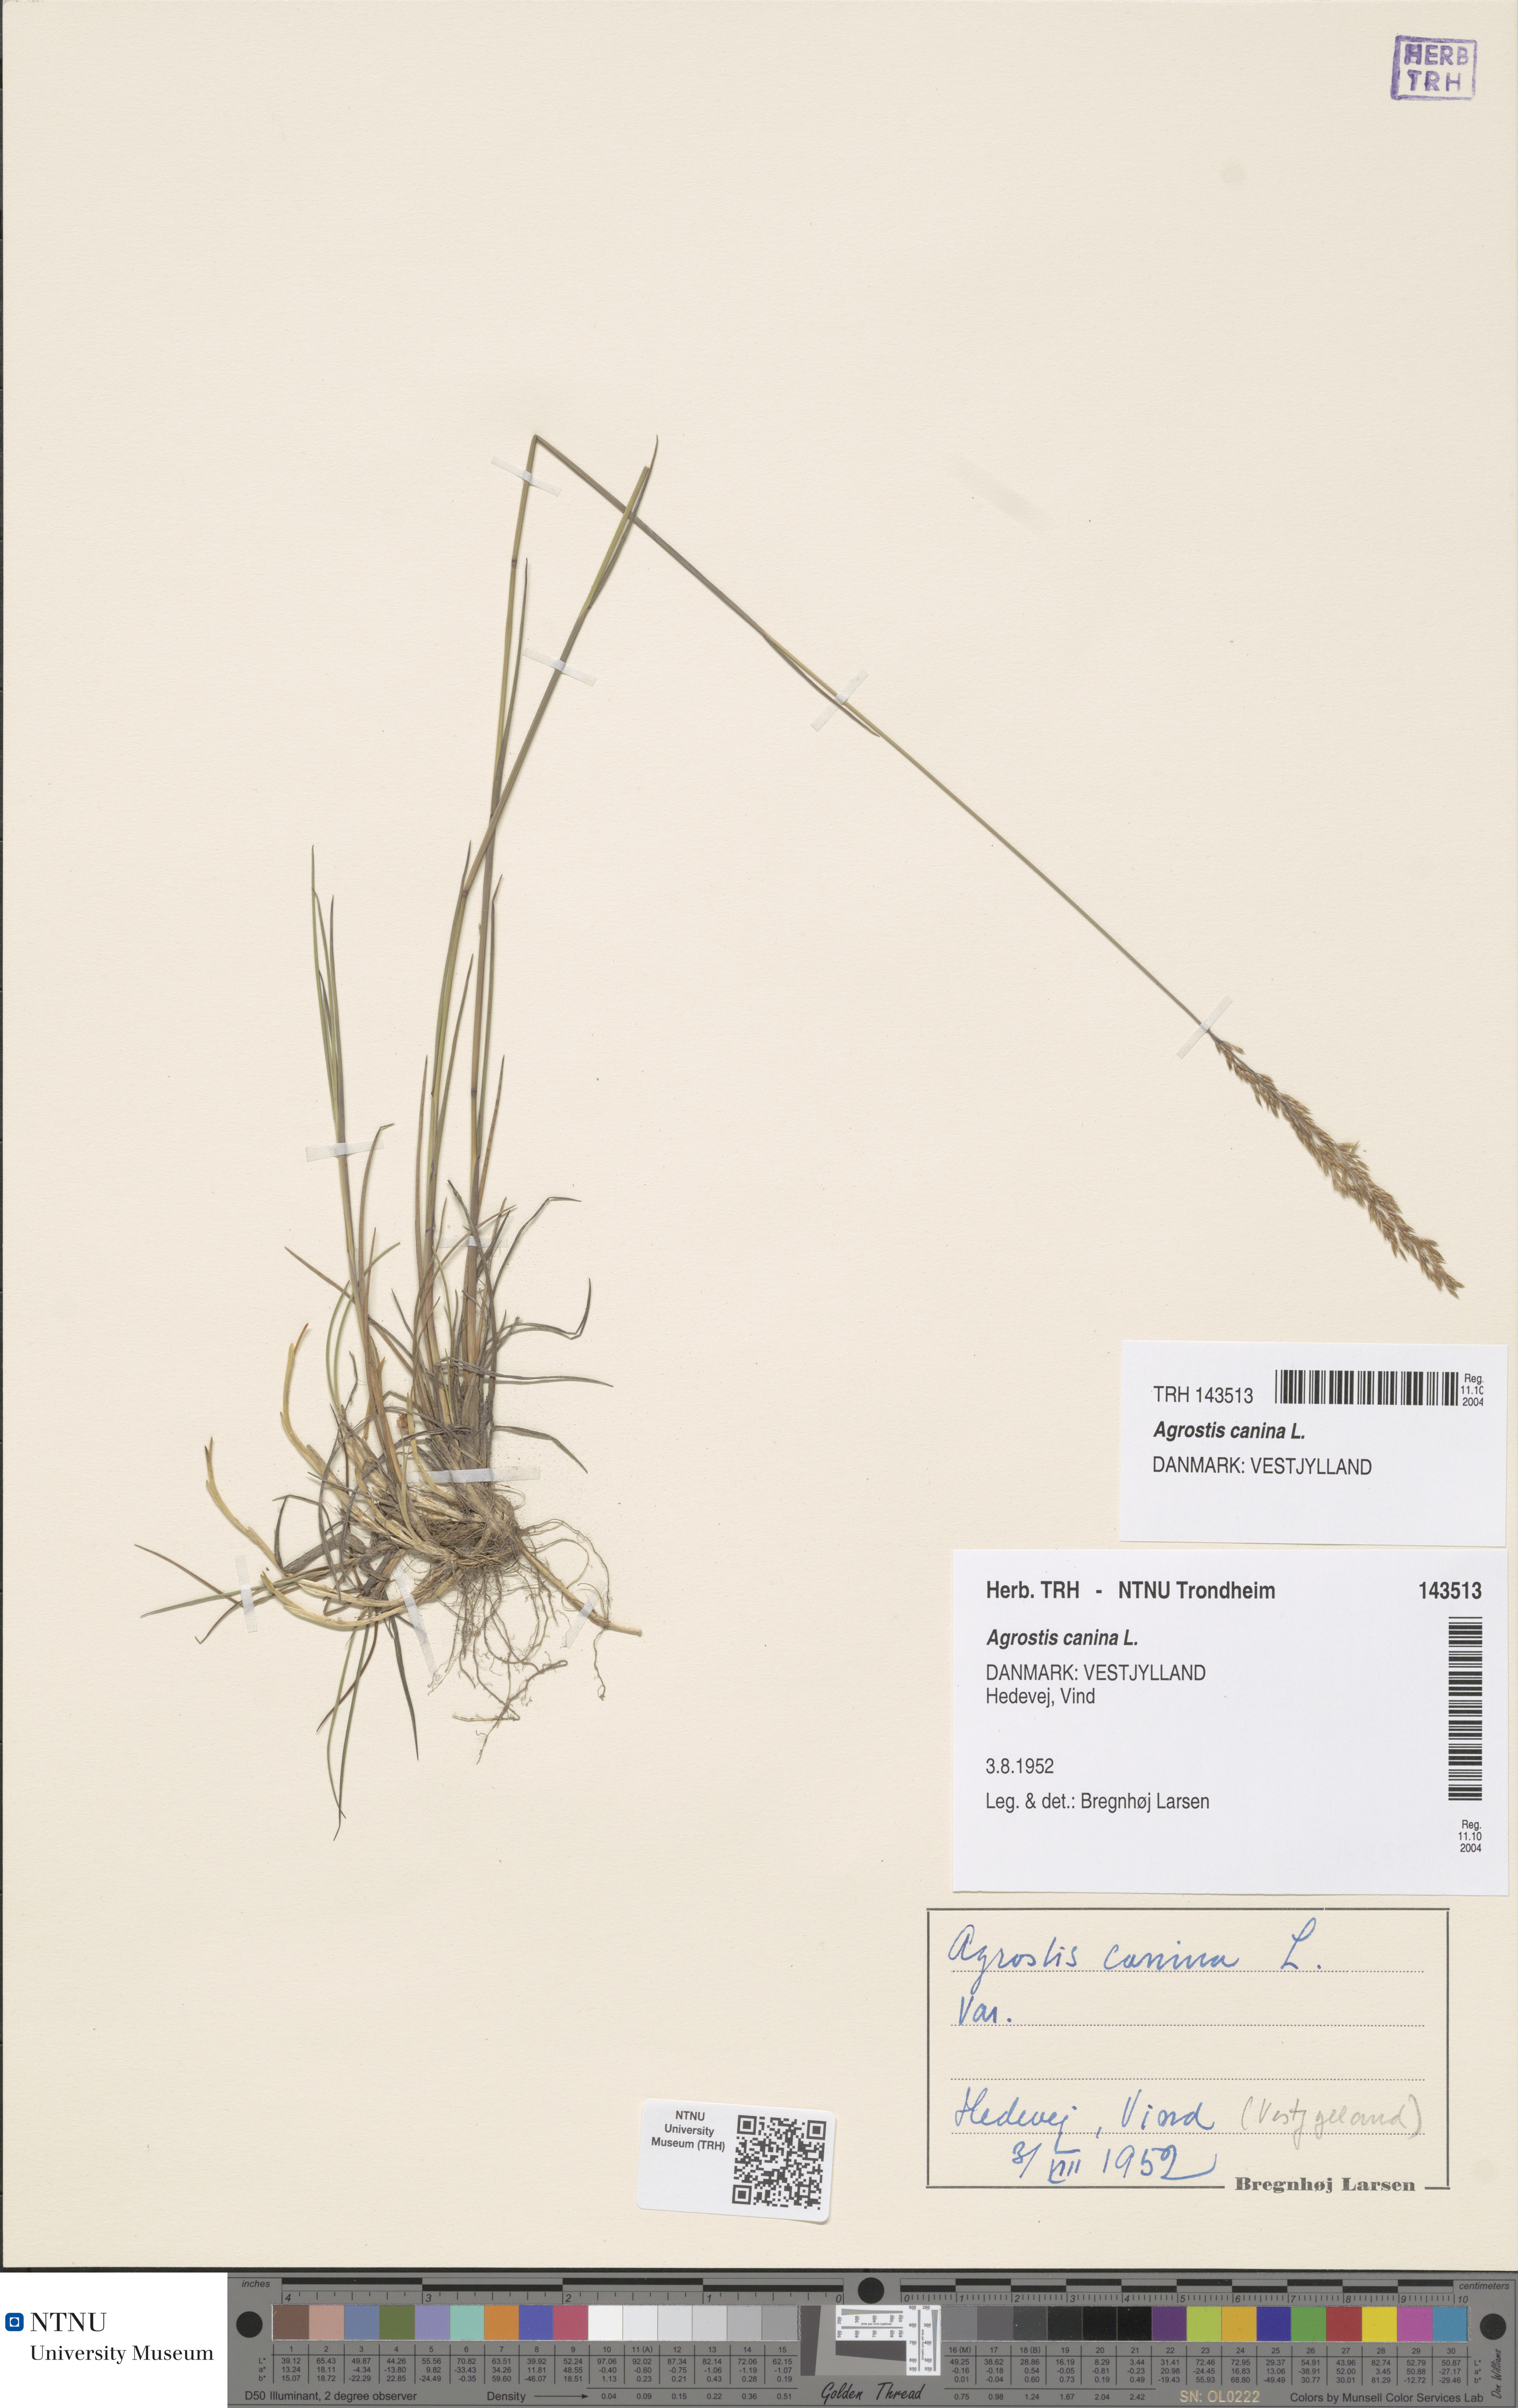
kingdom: Plantae
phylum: Tracheophyta
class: Liliopsida
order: Poales
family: Poaceae
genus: Agrostis
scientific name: Agrostis canina
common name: Velvet bent
